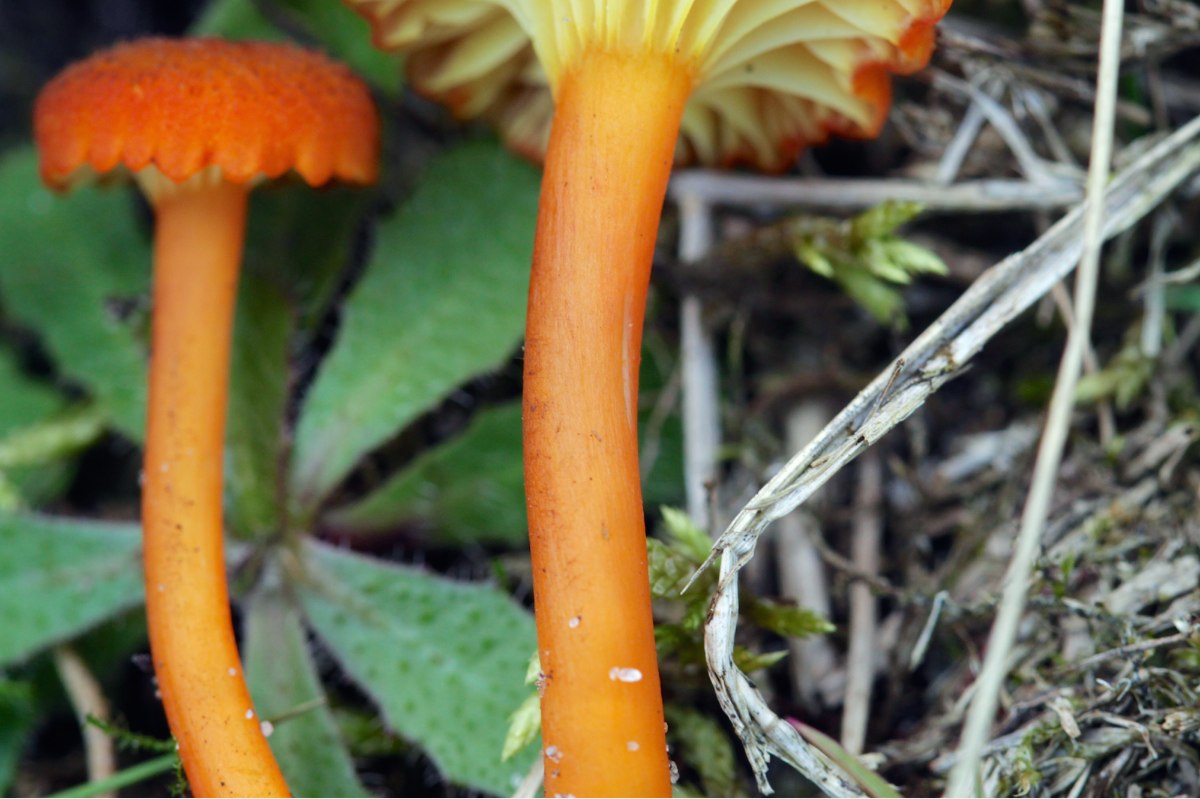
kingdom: Fungi
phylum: Basidiomycota
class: Agaricomycetes
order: Agaricales
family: Hygrophoraceae
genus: Hygrocybe
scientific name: Hygrocybe turunda
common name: sortskællet vokshat
